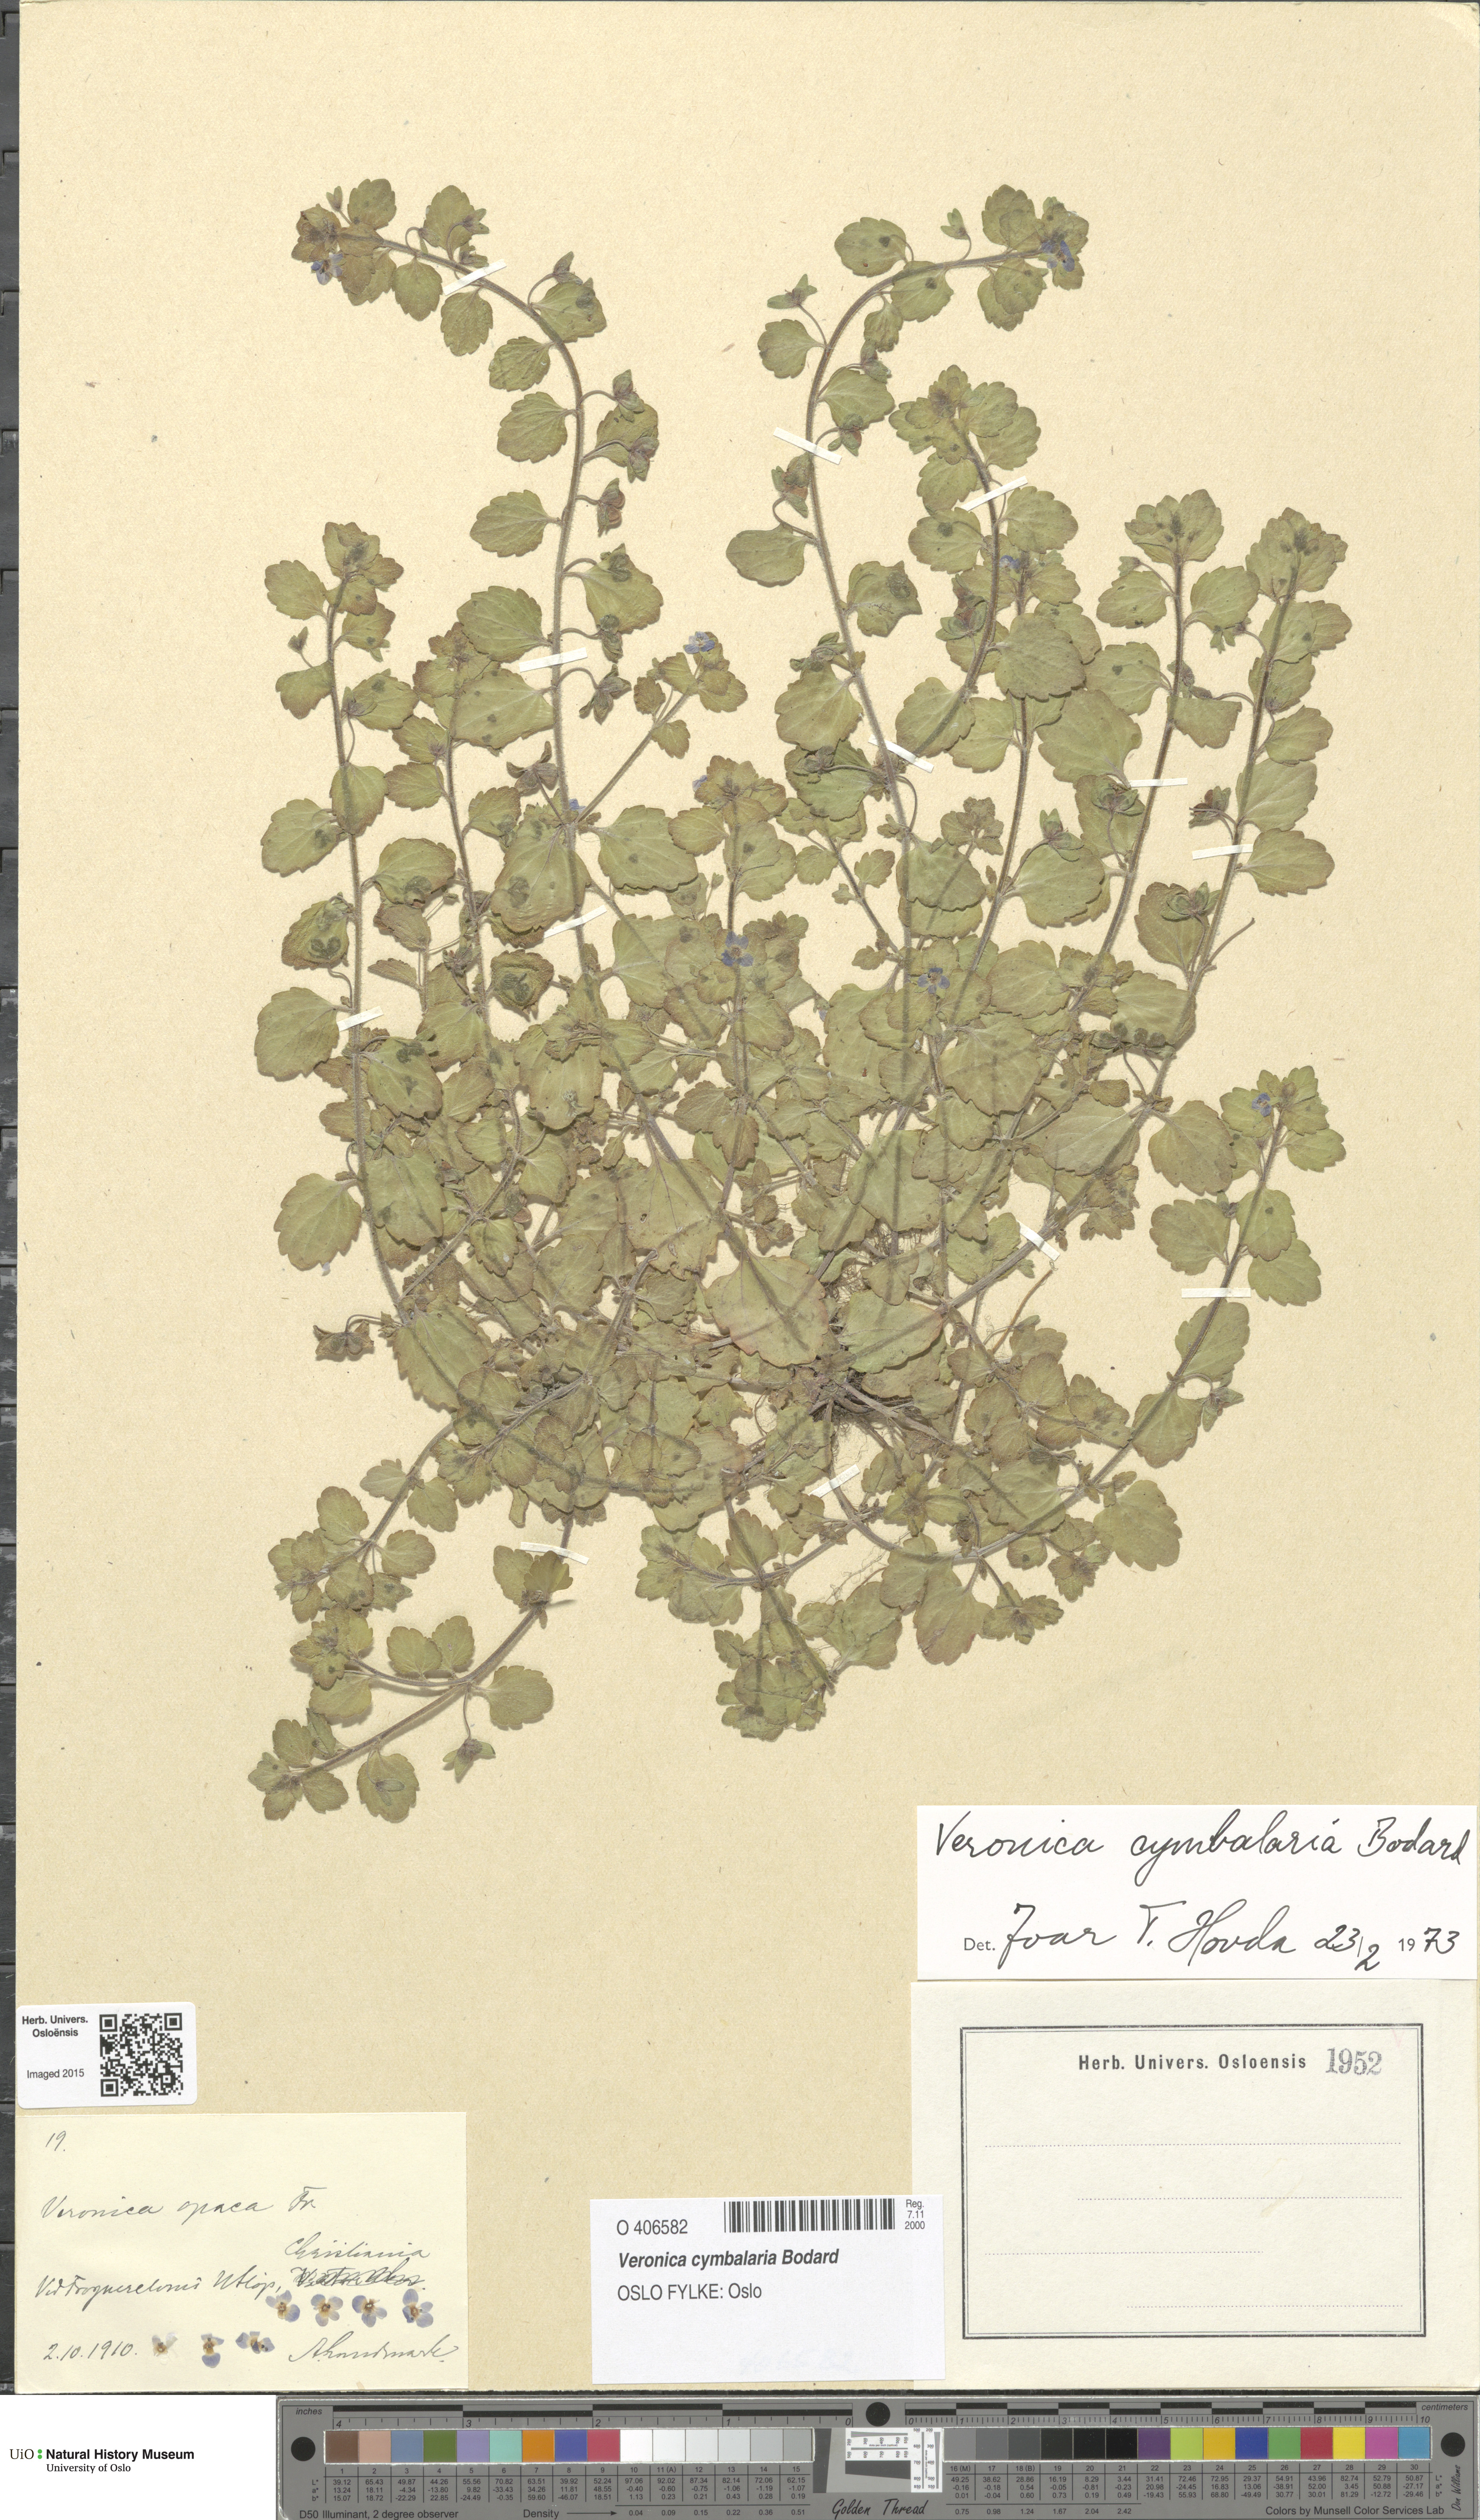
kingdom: Plantae
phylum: Tracheophyta
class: Magnoliopsida
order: Lamiales
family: Plantaginaceae
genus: Veronica
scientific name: Veronica cymbalaria
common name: Pale speedwell
